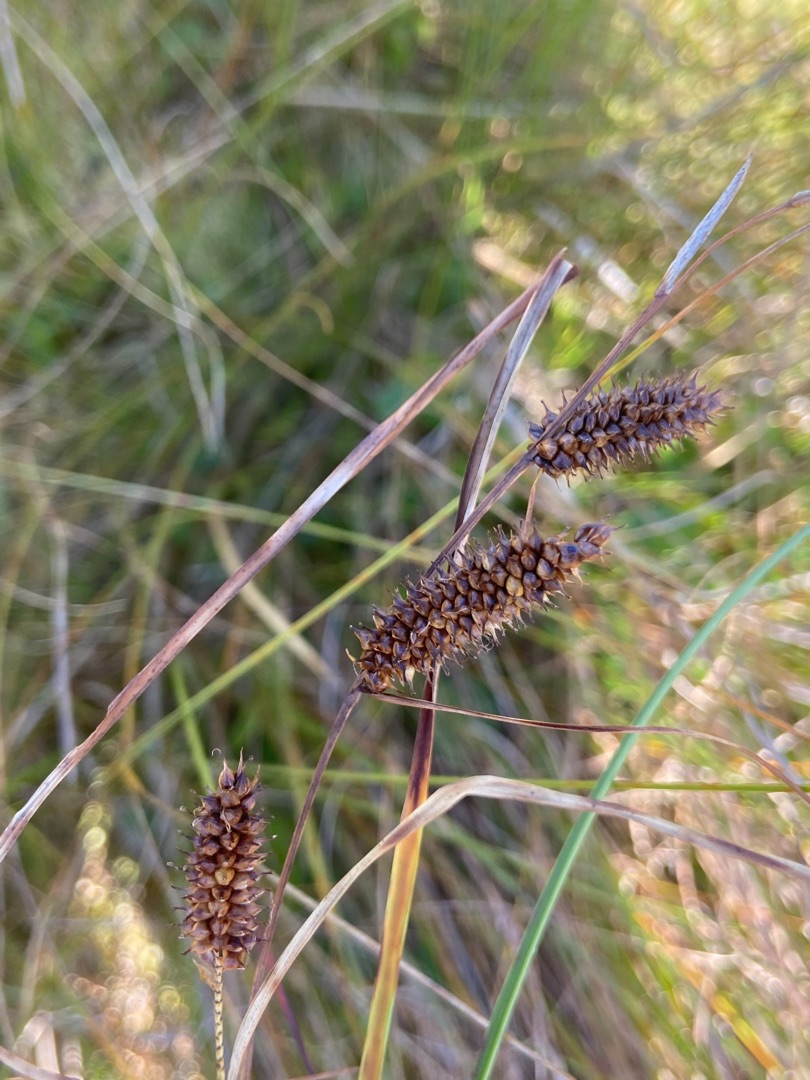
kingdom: Plantae
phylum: Tracheophyta
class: Liliopsida
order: Poales
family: Cyperaceae
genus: Carex
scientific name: Carex rostrata
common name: Næb-star
